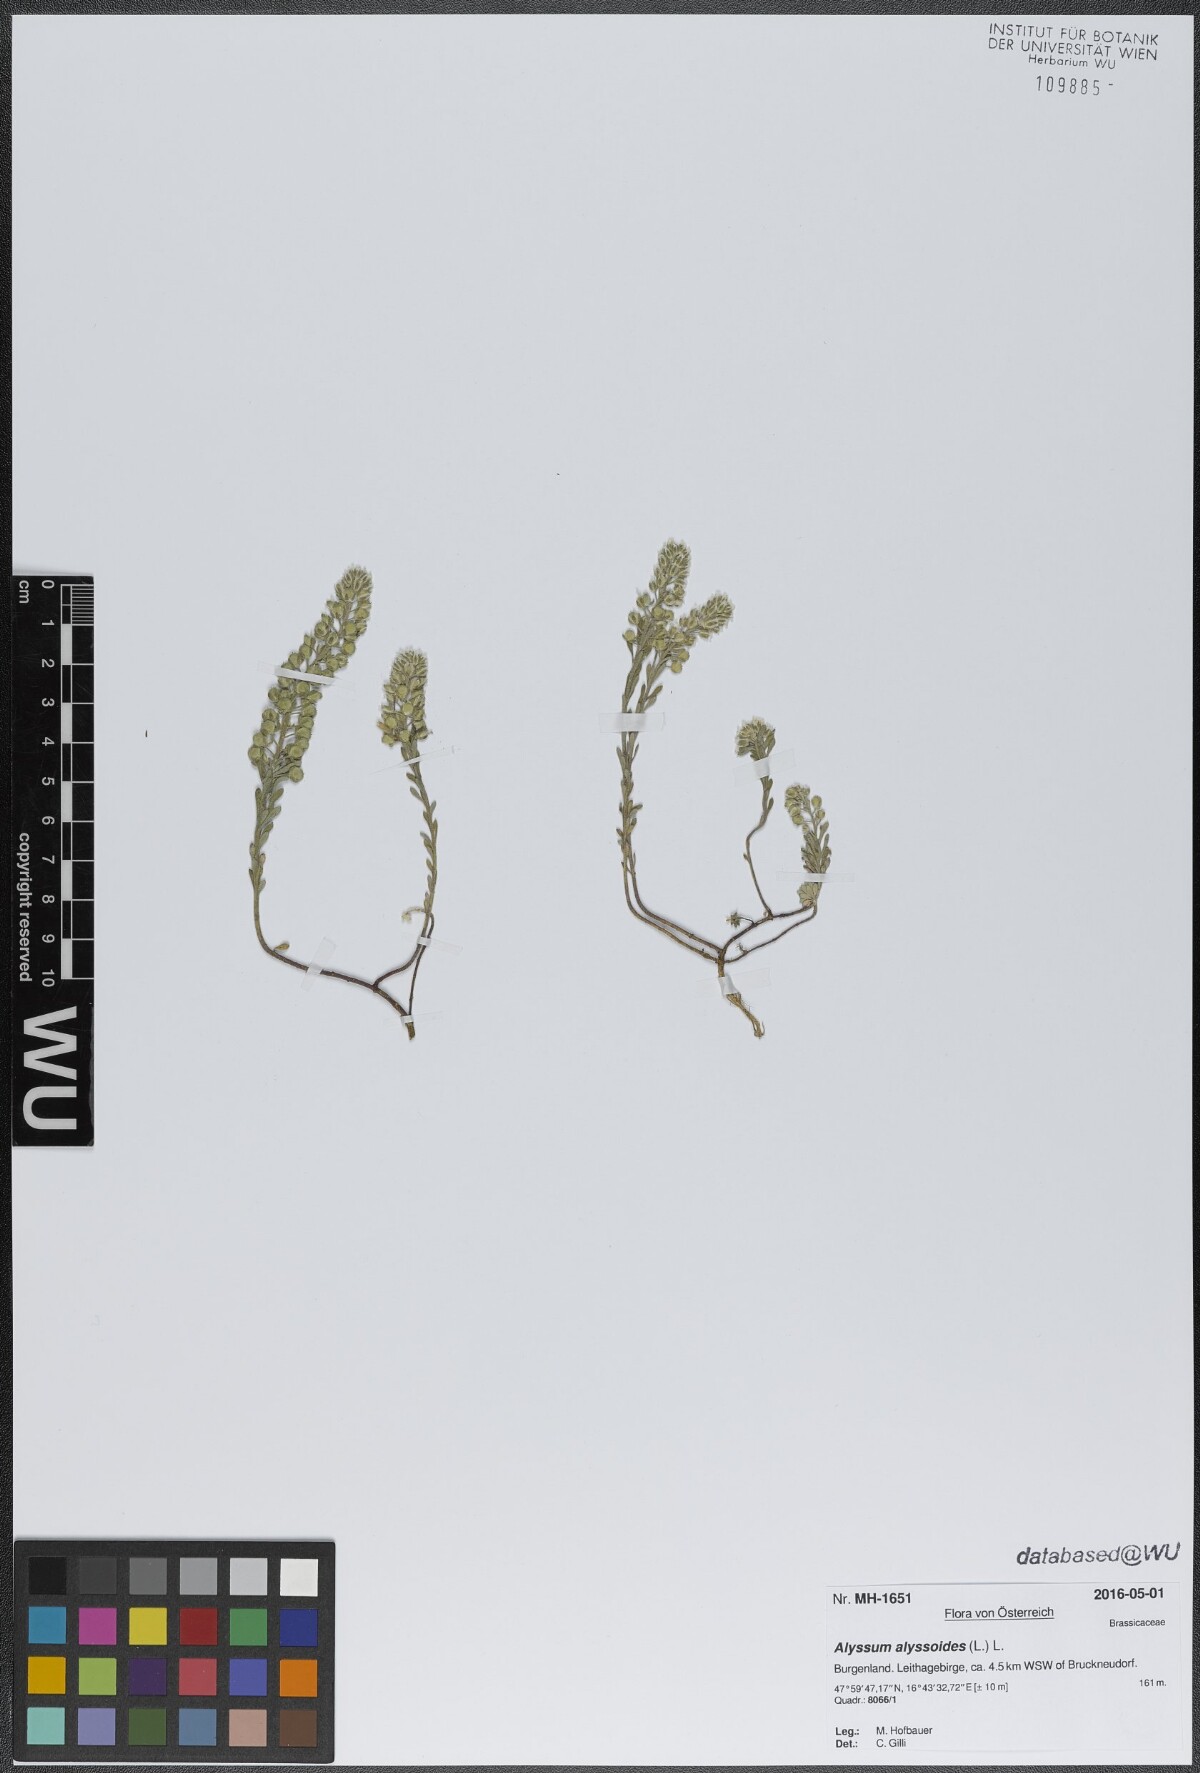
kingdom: Plantae
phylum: Tracheophyta
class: Magnoliopsida
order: Brassicales
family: Brassicaceae
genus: Alyssum
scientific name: Alyssum alyssoides
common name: Small alison
